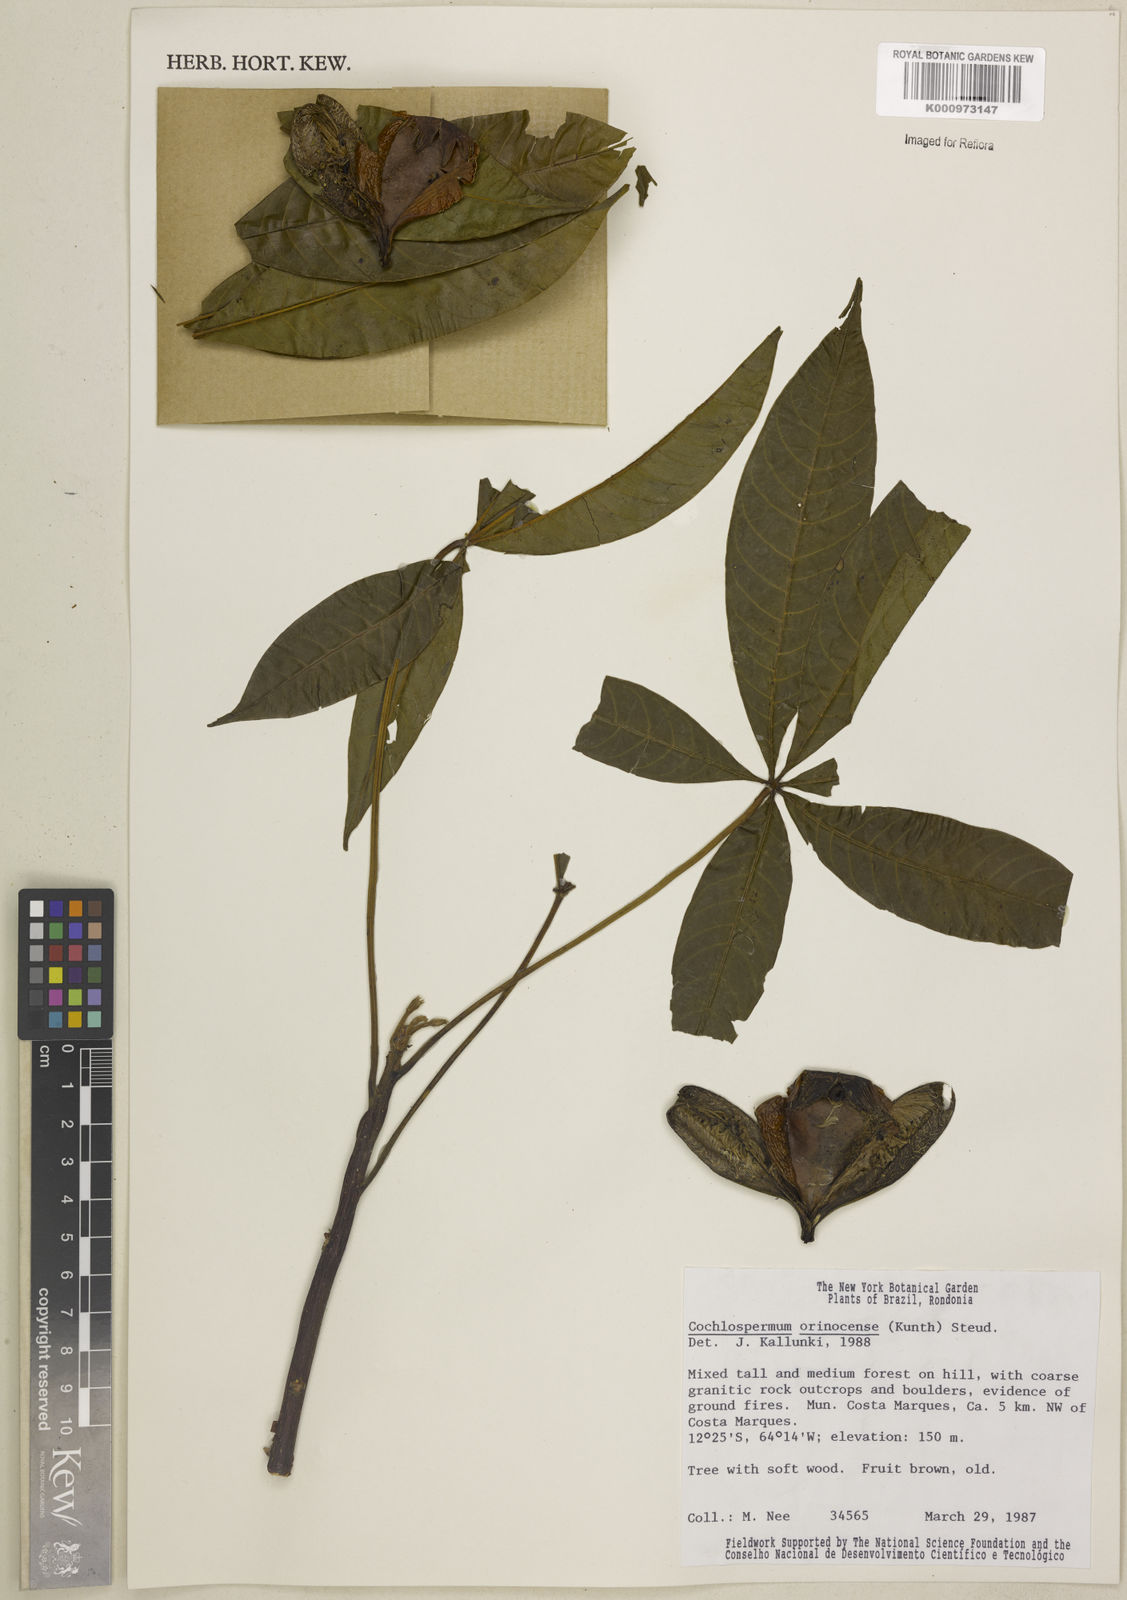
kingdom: Plantae
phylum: Tracheophyta
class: Magnoliopsida
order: Malvales
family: Cochlospermaceae
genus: Cochlospermum
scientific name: Cochlospermum orinocense
